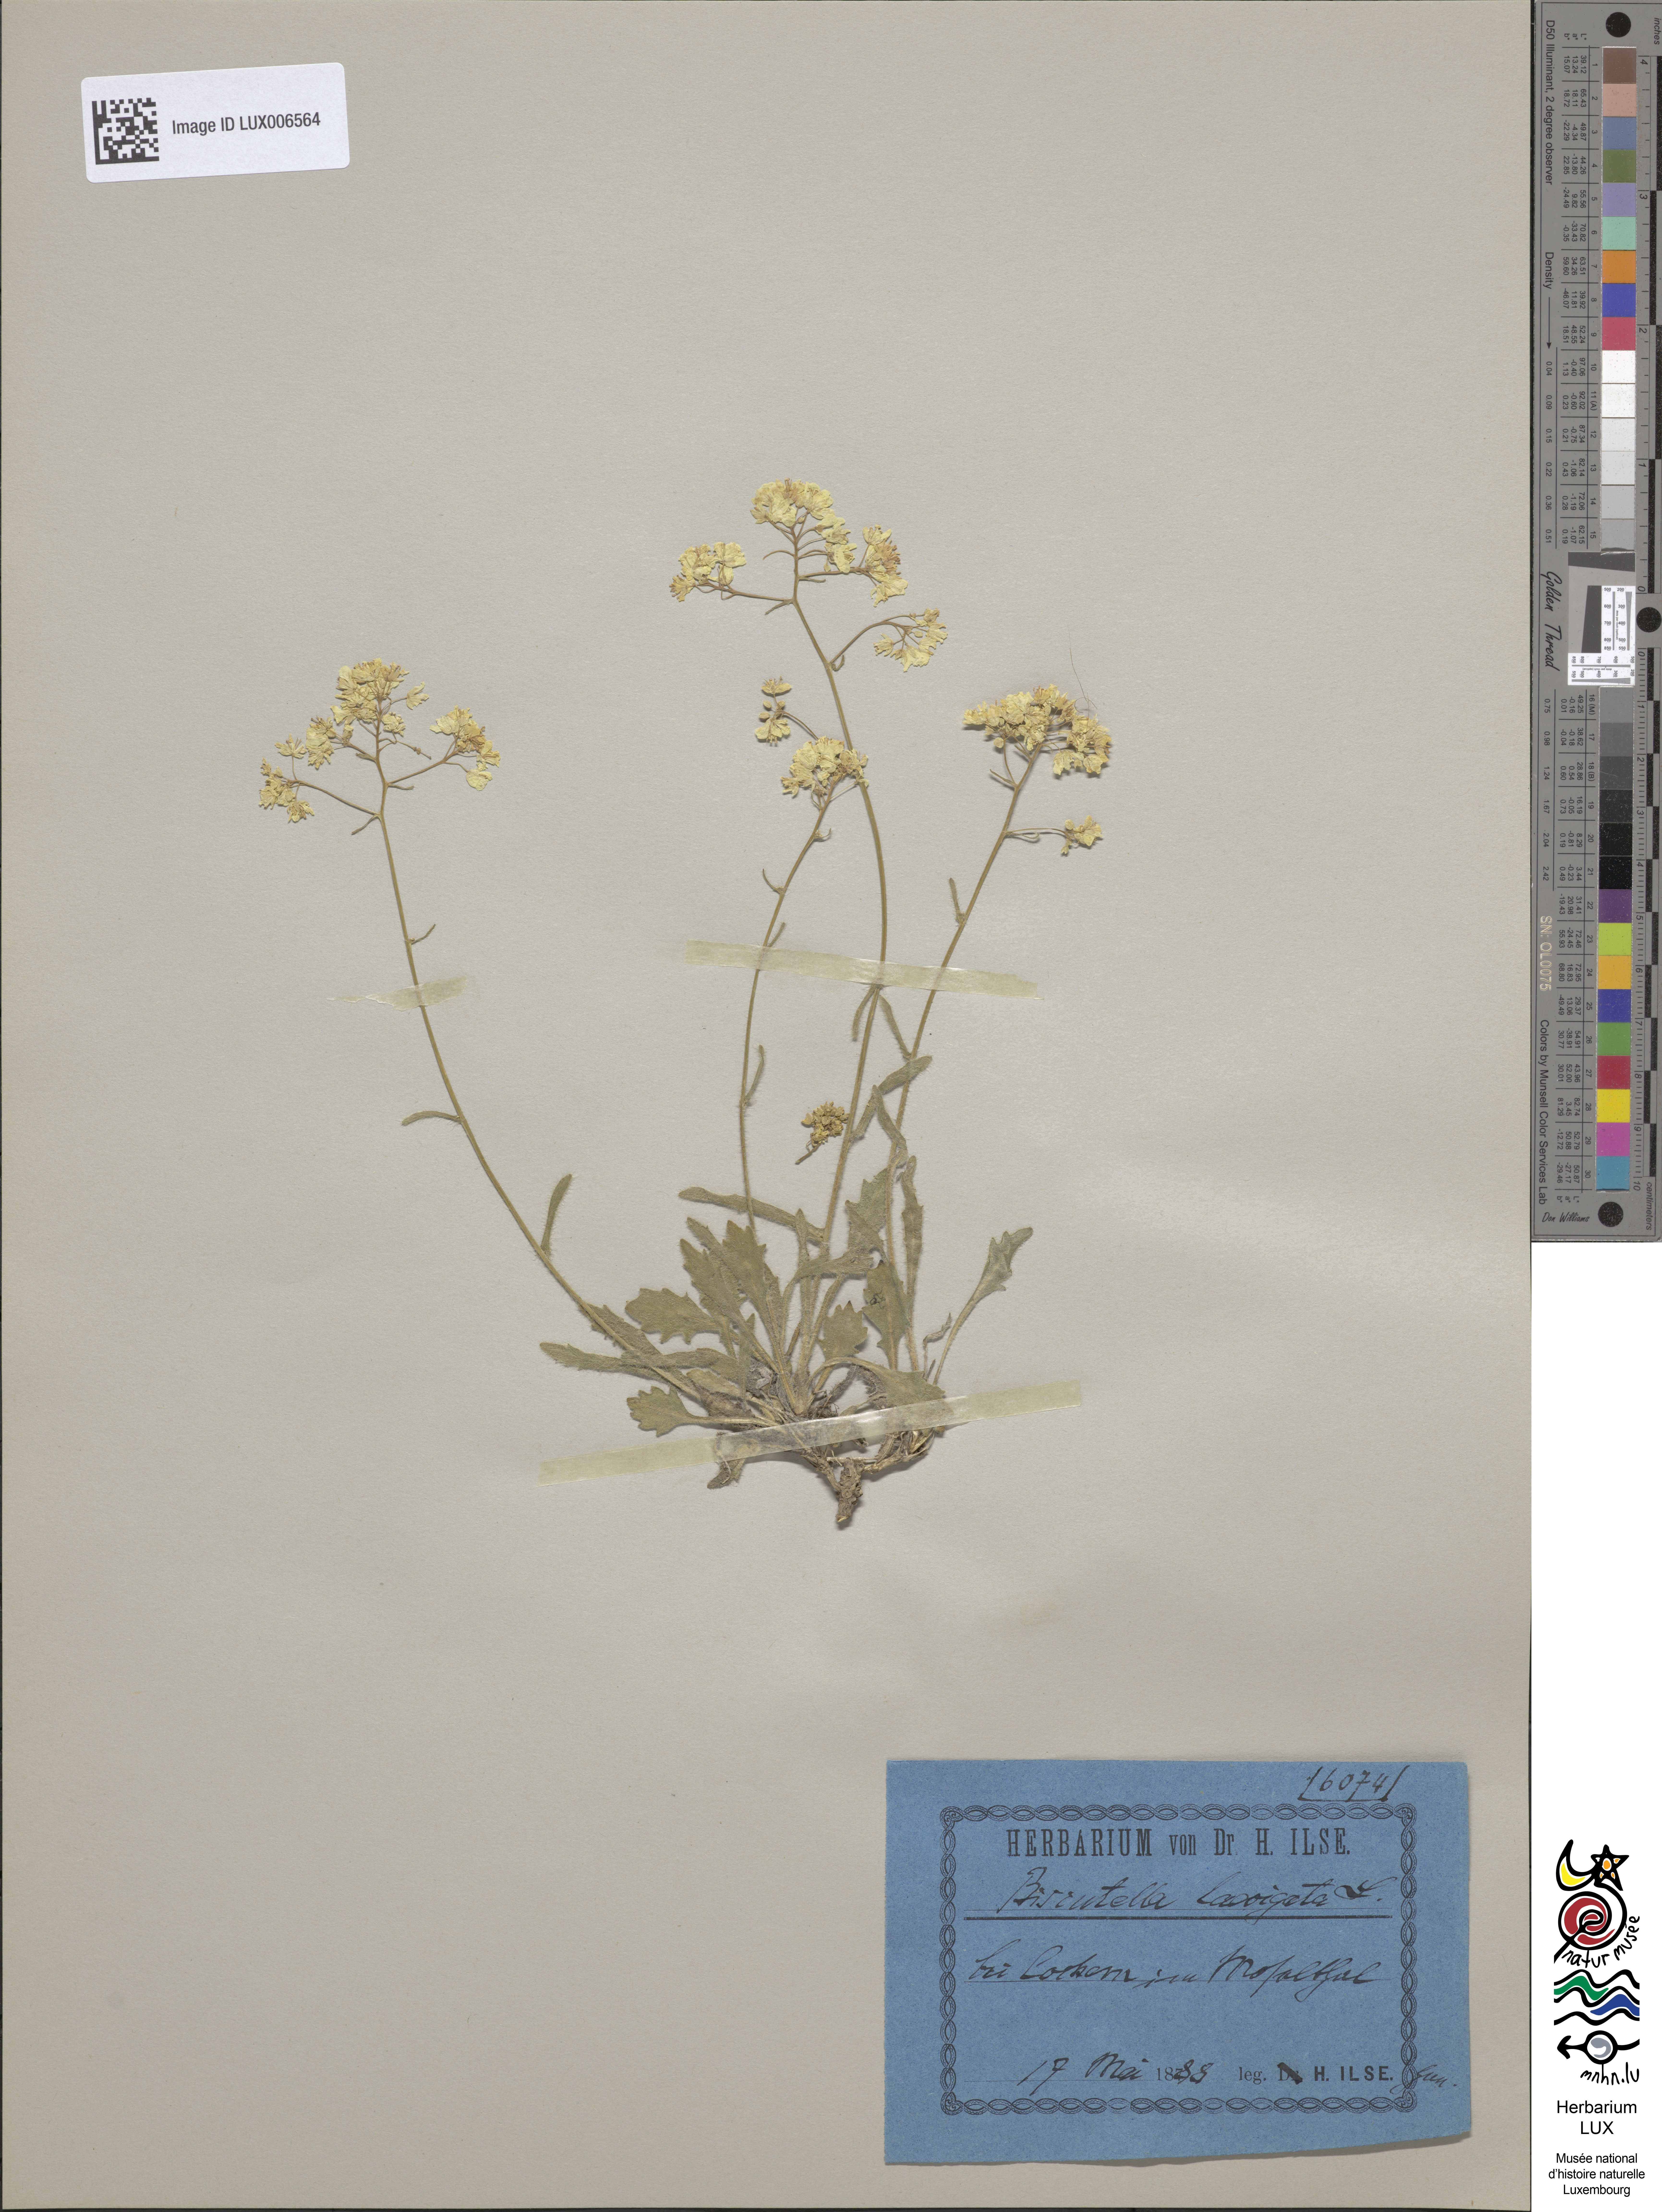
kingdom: Plantae
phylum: Tracheophyta
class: Magnoliopsida
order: Brassicales
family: Brassicaceae
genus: Biscutella
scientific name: Biscutella laevigata
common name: Buckler mustard
